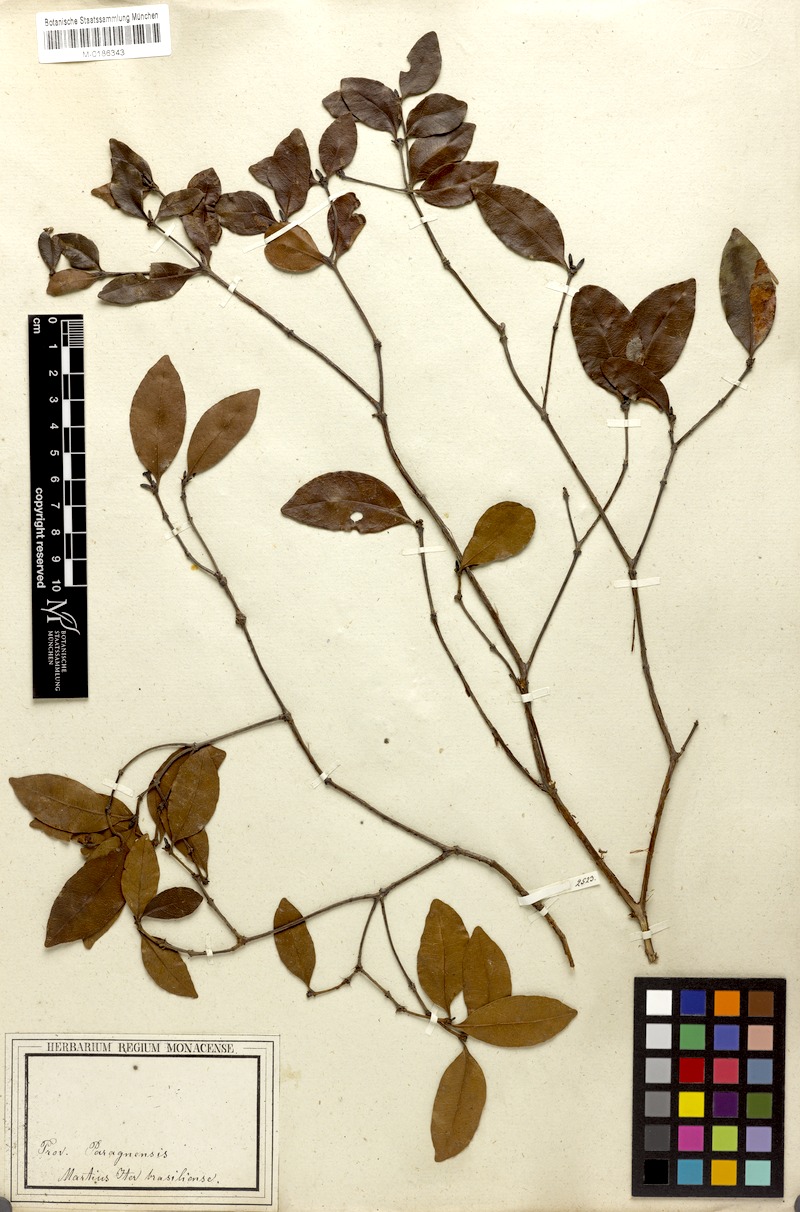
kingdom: Plantae
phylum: Tracheophyta
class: Magnoliopsida
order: Gentianales
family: Rubiaceae
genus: Cordiera
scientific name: Cordiera obtusa
